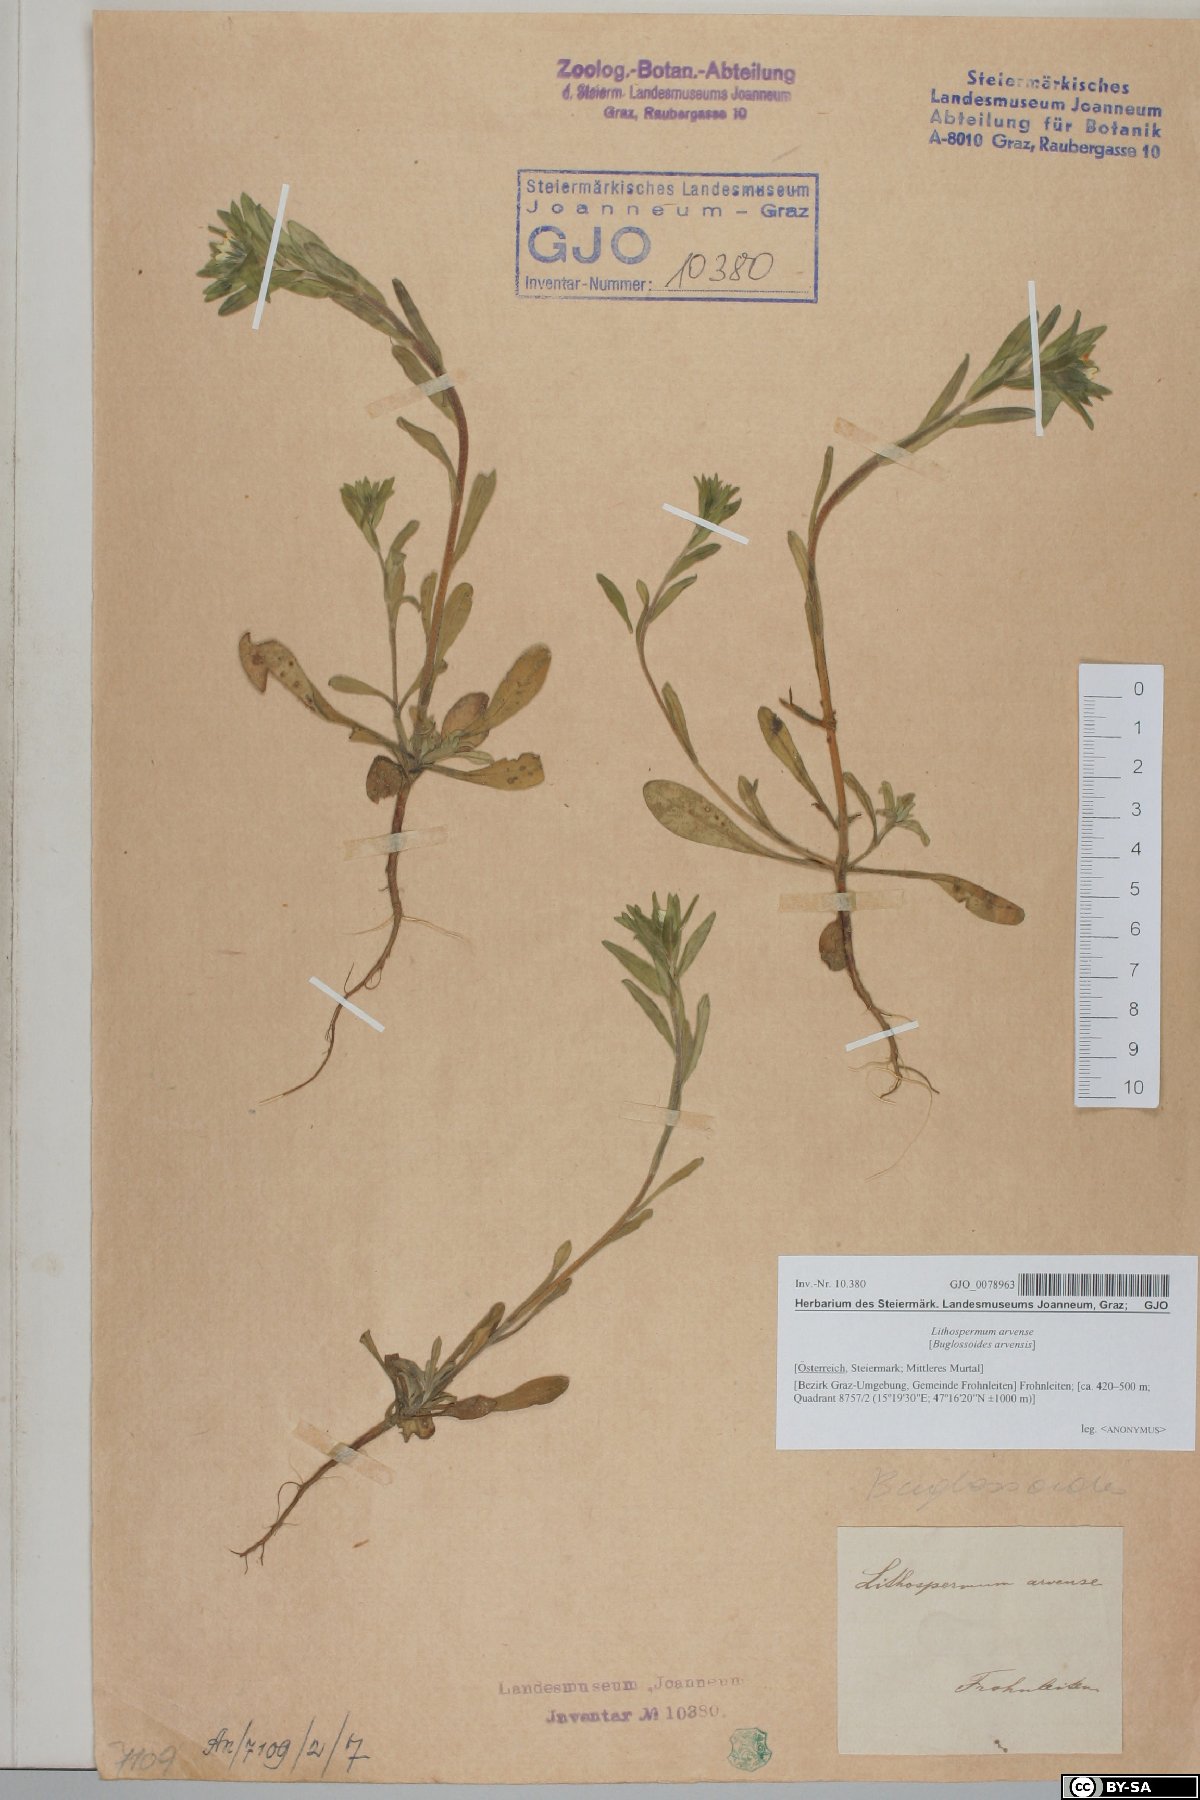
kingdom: Plantae
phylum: Tracheophyta
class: Magnoliopsida
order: Boraginales
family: Boraginaceae
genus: Buglossoides
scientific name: Buglossoides arvensis
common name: Corn gromwell
